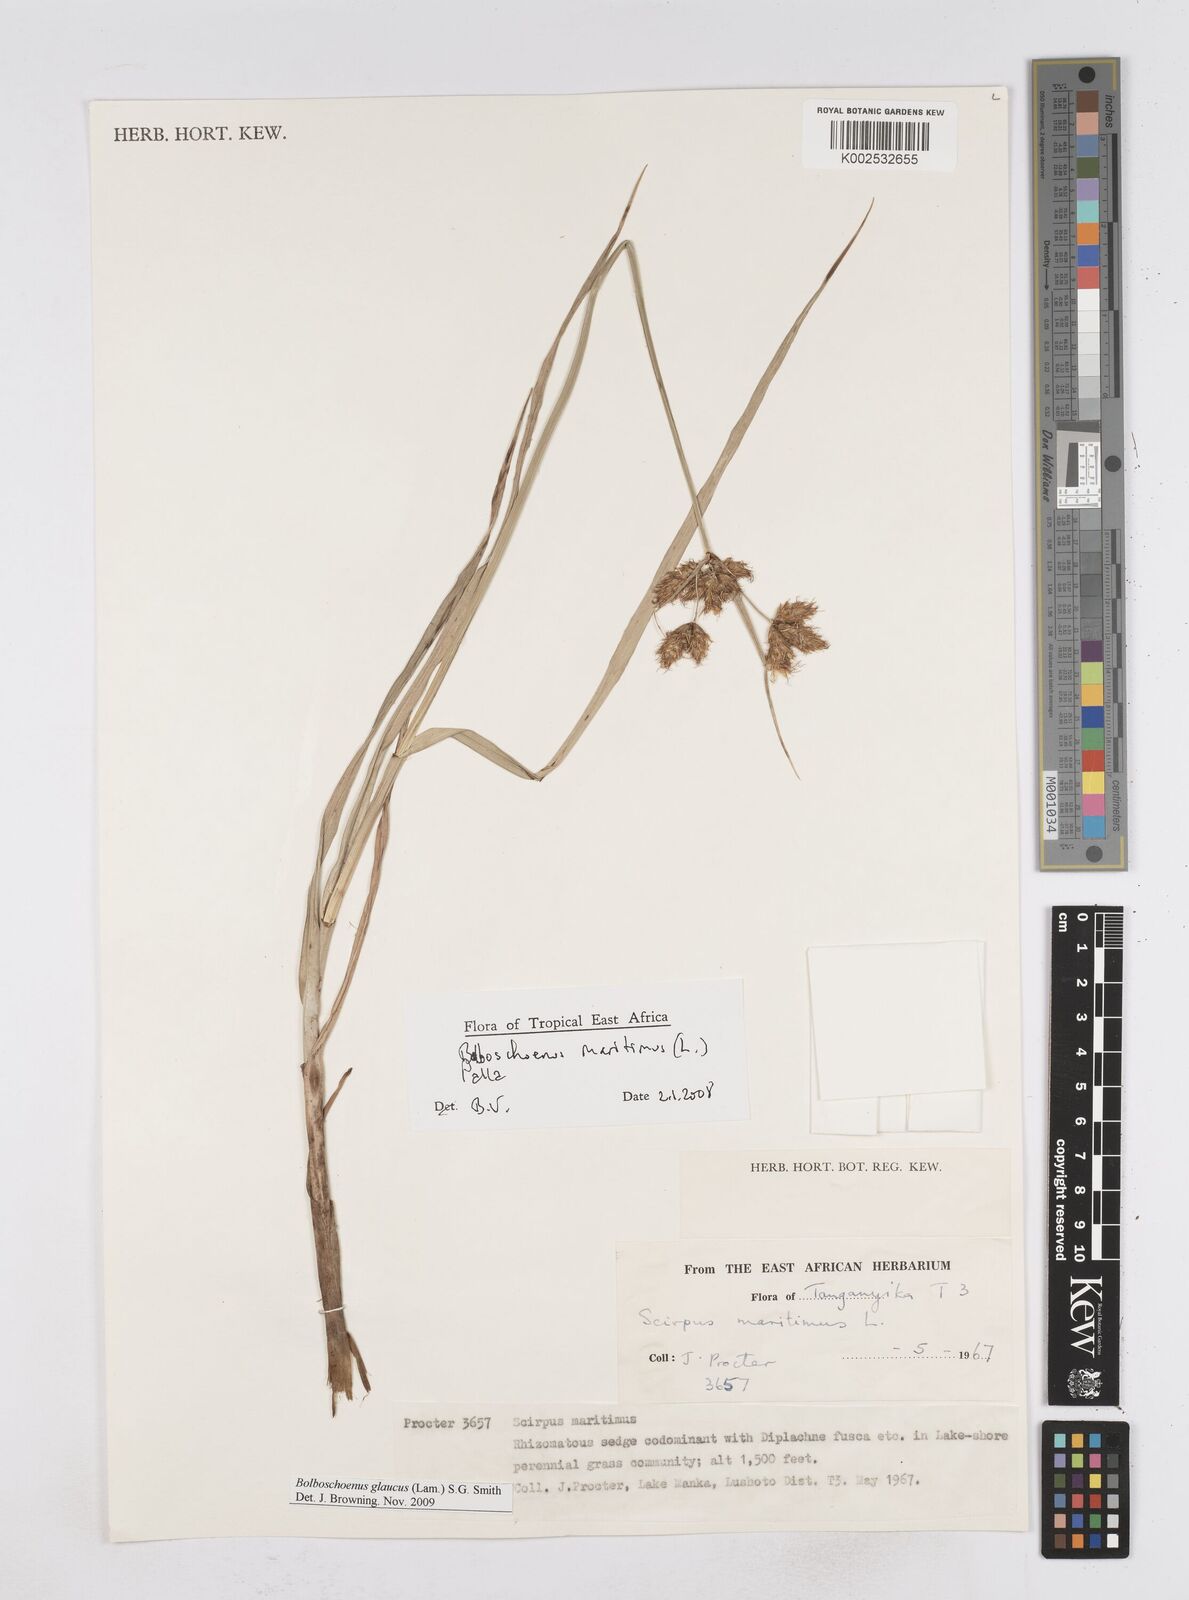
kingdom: Plantae
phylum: Tracheophyta
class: Liliopsida
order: Poales
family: Cyperaceae
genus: Bolboschoenus
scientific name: Bolboschoenus glaucus
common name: Tuberous bulrush
